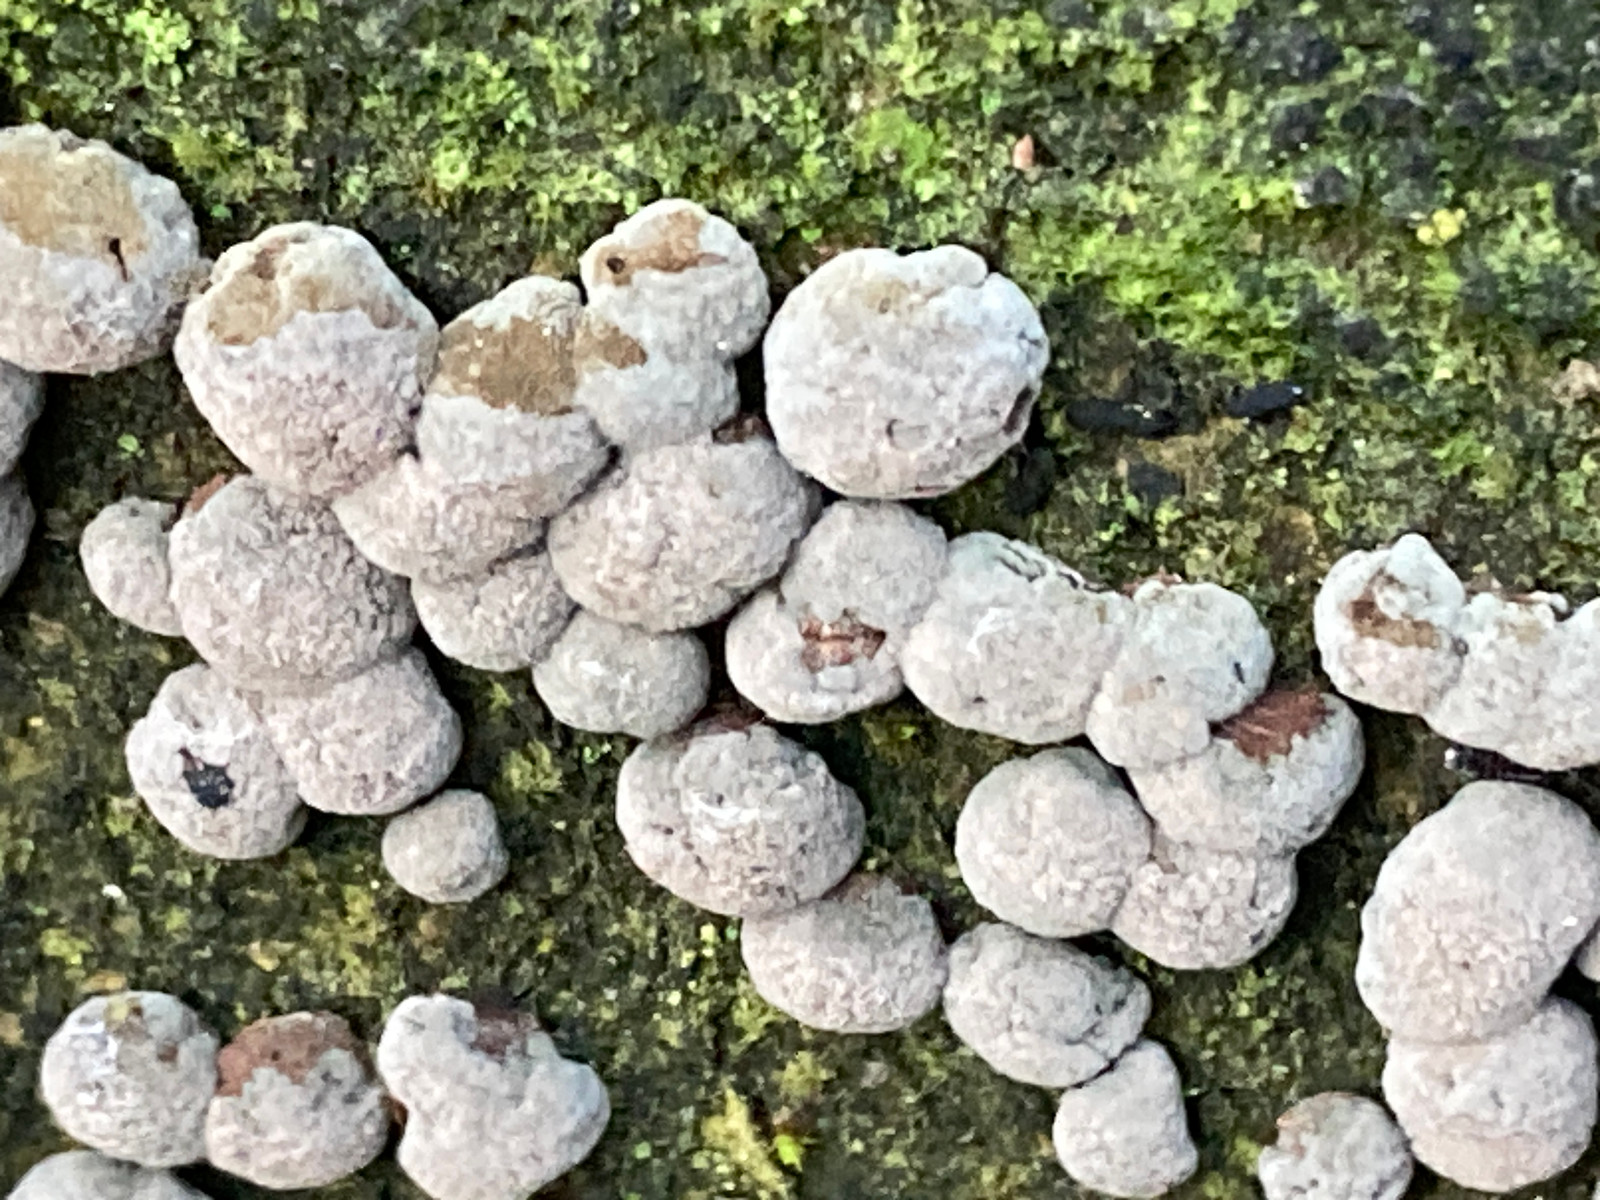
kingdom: Fungi
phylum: Ascomycota
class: Sordariomycetes
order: Xylariales
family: Hypoxylaceae
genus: Hypoxylon
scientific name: Hypoxylon fragiforme
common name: kuljordbær
